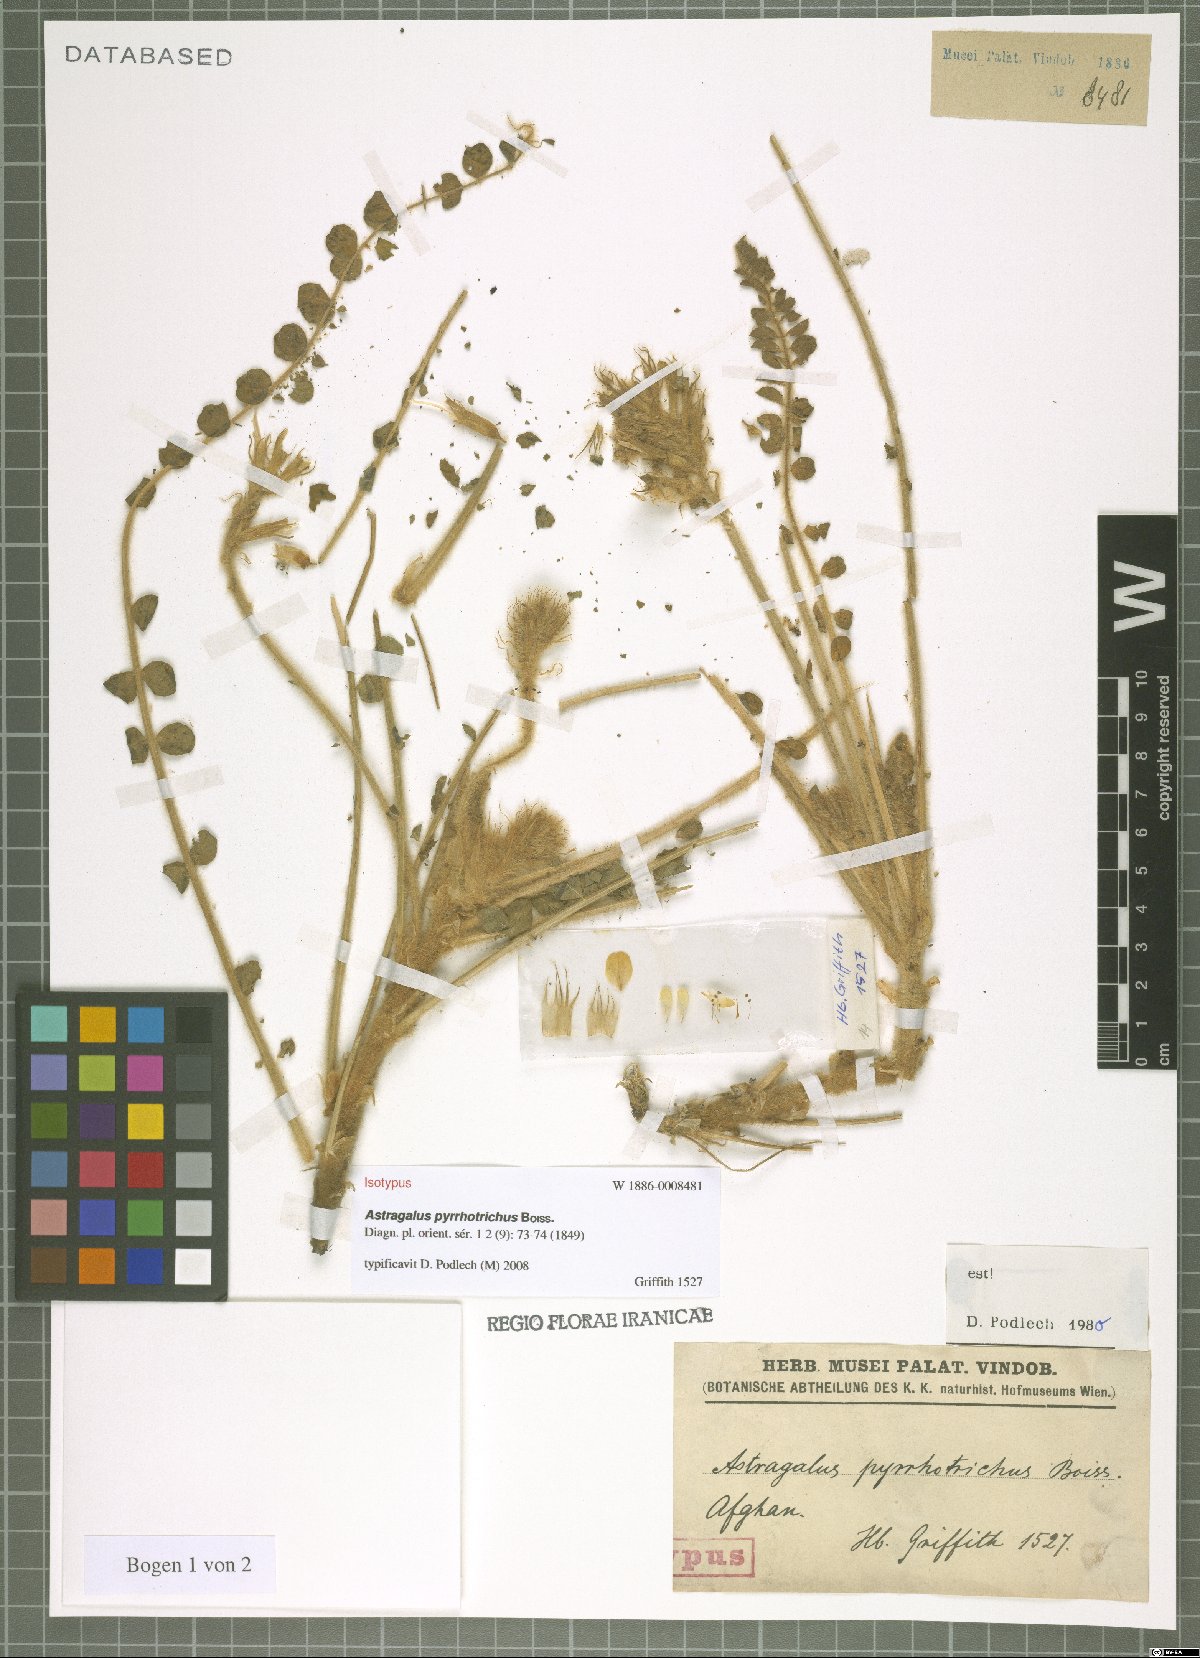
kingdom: Plantae
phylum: Tracheophyta
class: Magnoliopsida
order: Fabales
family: Fabaceae
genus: Astragalus
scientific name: Astragalus pyrrhotrichus
